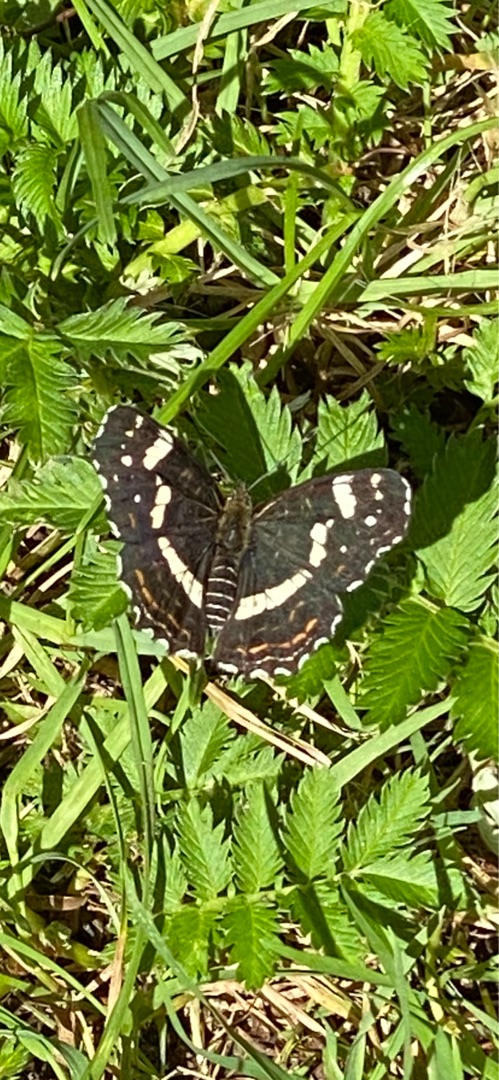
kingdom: Animalia
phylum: Arthropoda
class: Insecta
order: Lepidoptera
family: Nymphalidae
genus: Araschnia
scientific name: Araschnia levana
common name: Nældesommerfugl
